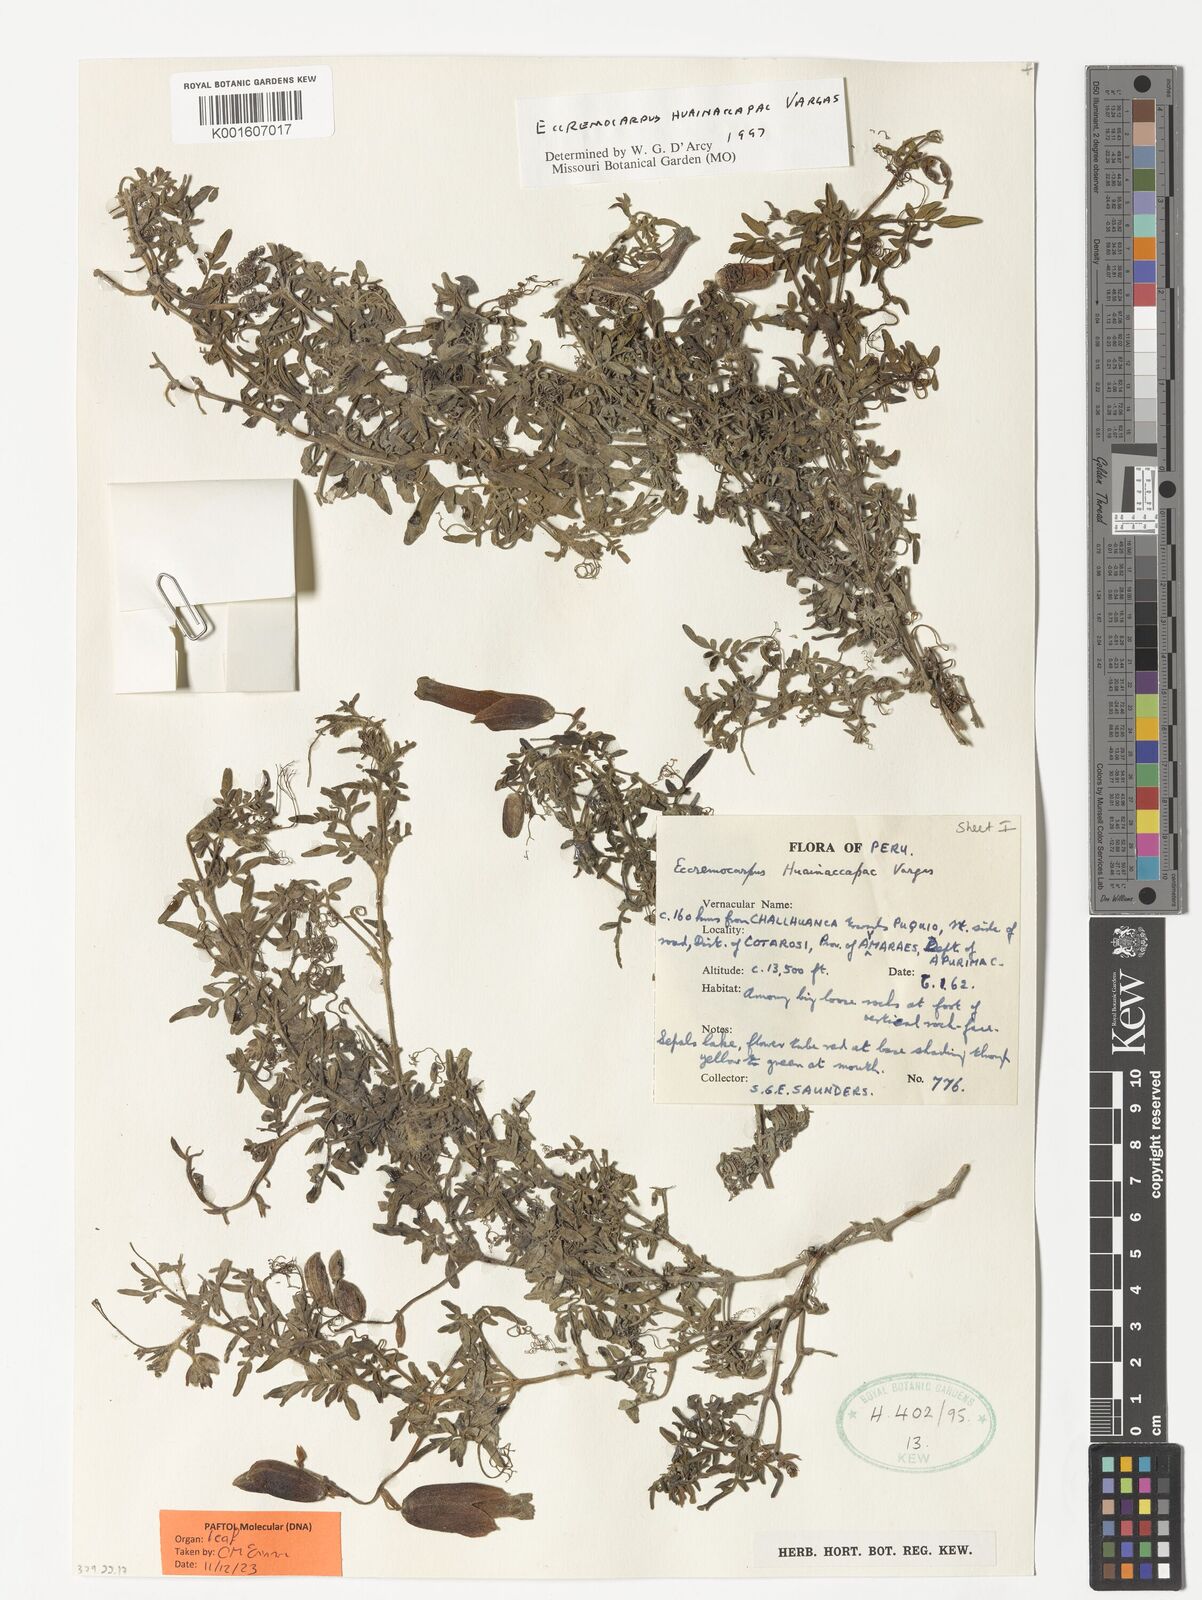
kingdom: Plantae
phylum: Tracheophyta
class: Magnoliopsida
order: Lamiales
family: Bignoniaceae
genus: Eccremocarpus
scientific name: Eccremocarpus huianaccapac
